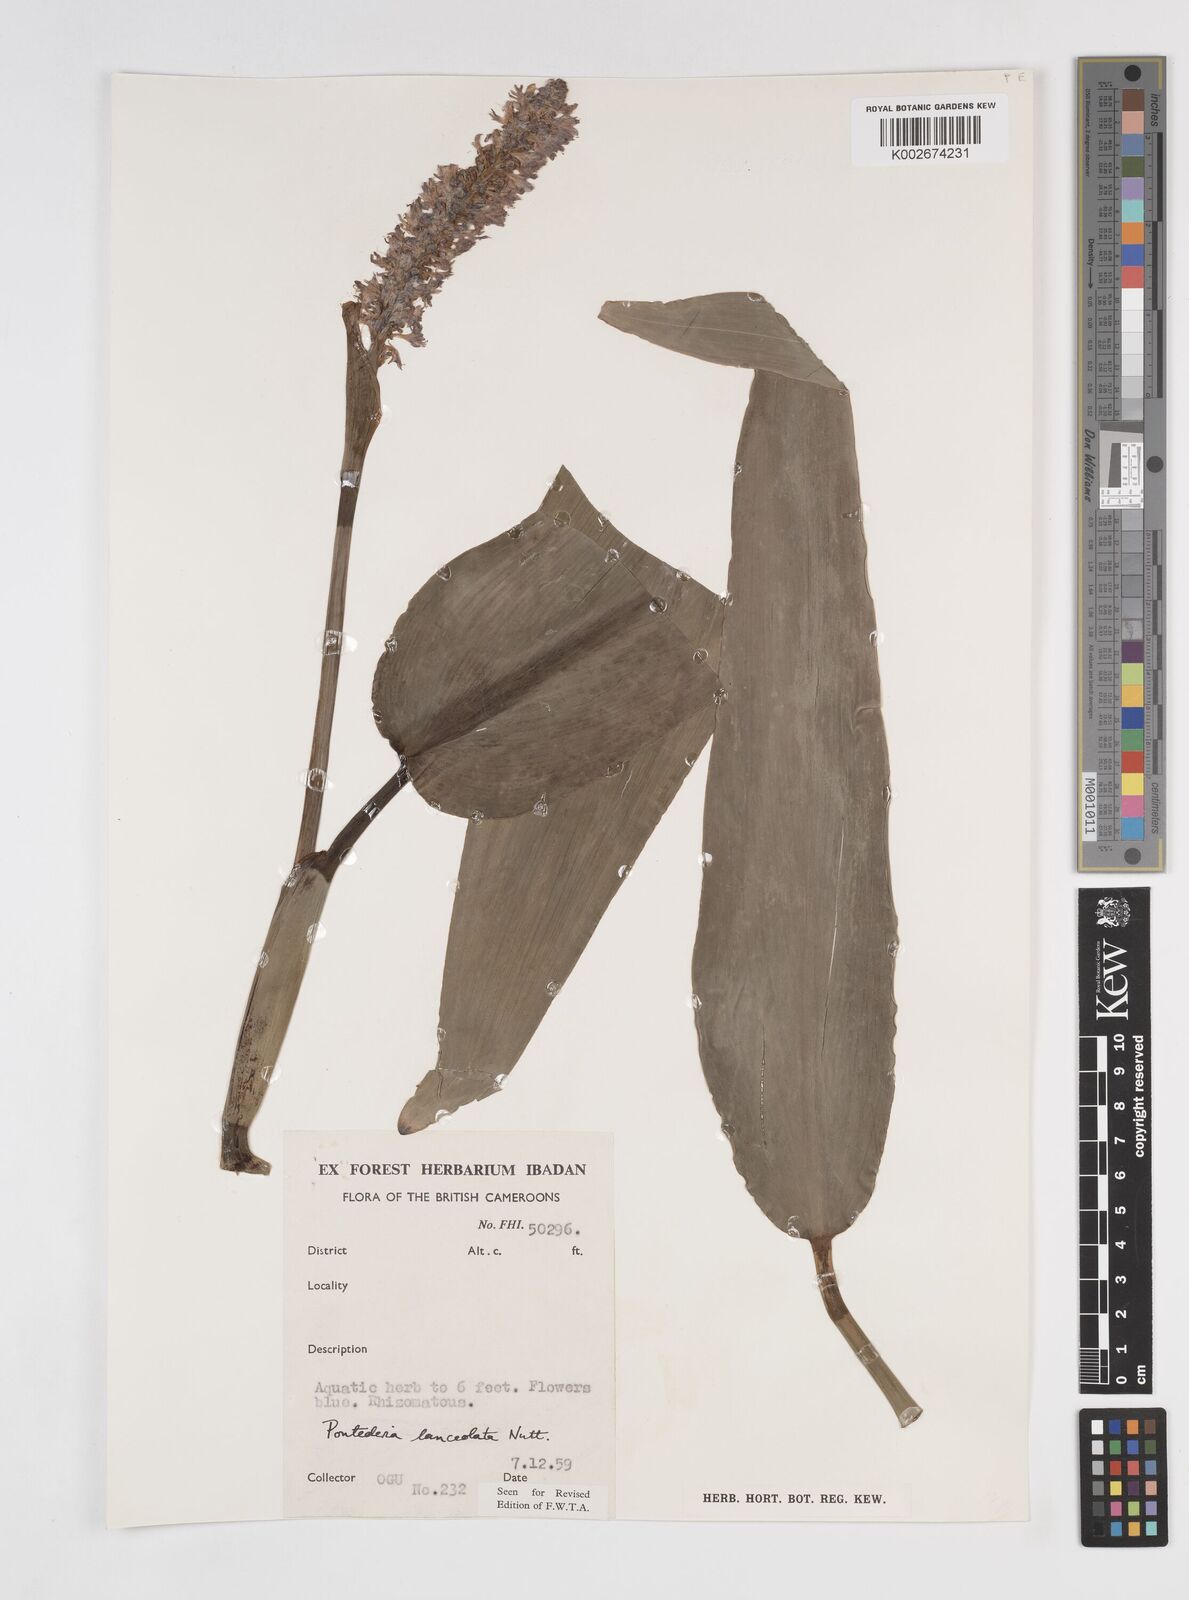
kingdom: Plantae
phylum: Tracheophyta
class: Liliopsida
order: Commelinales
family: Pontederiaceae
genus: Pontederia
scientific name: Pontederia
